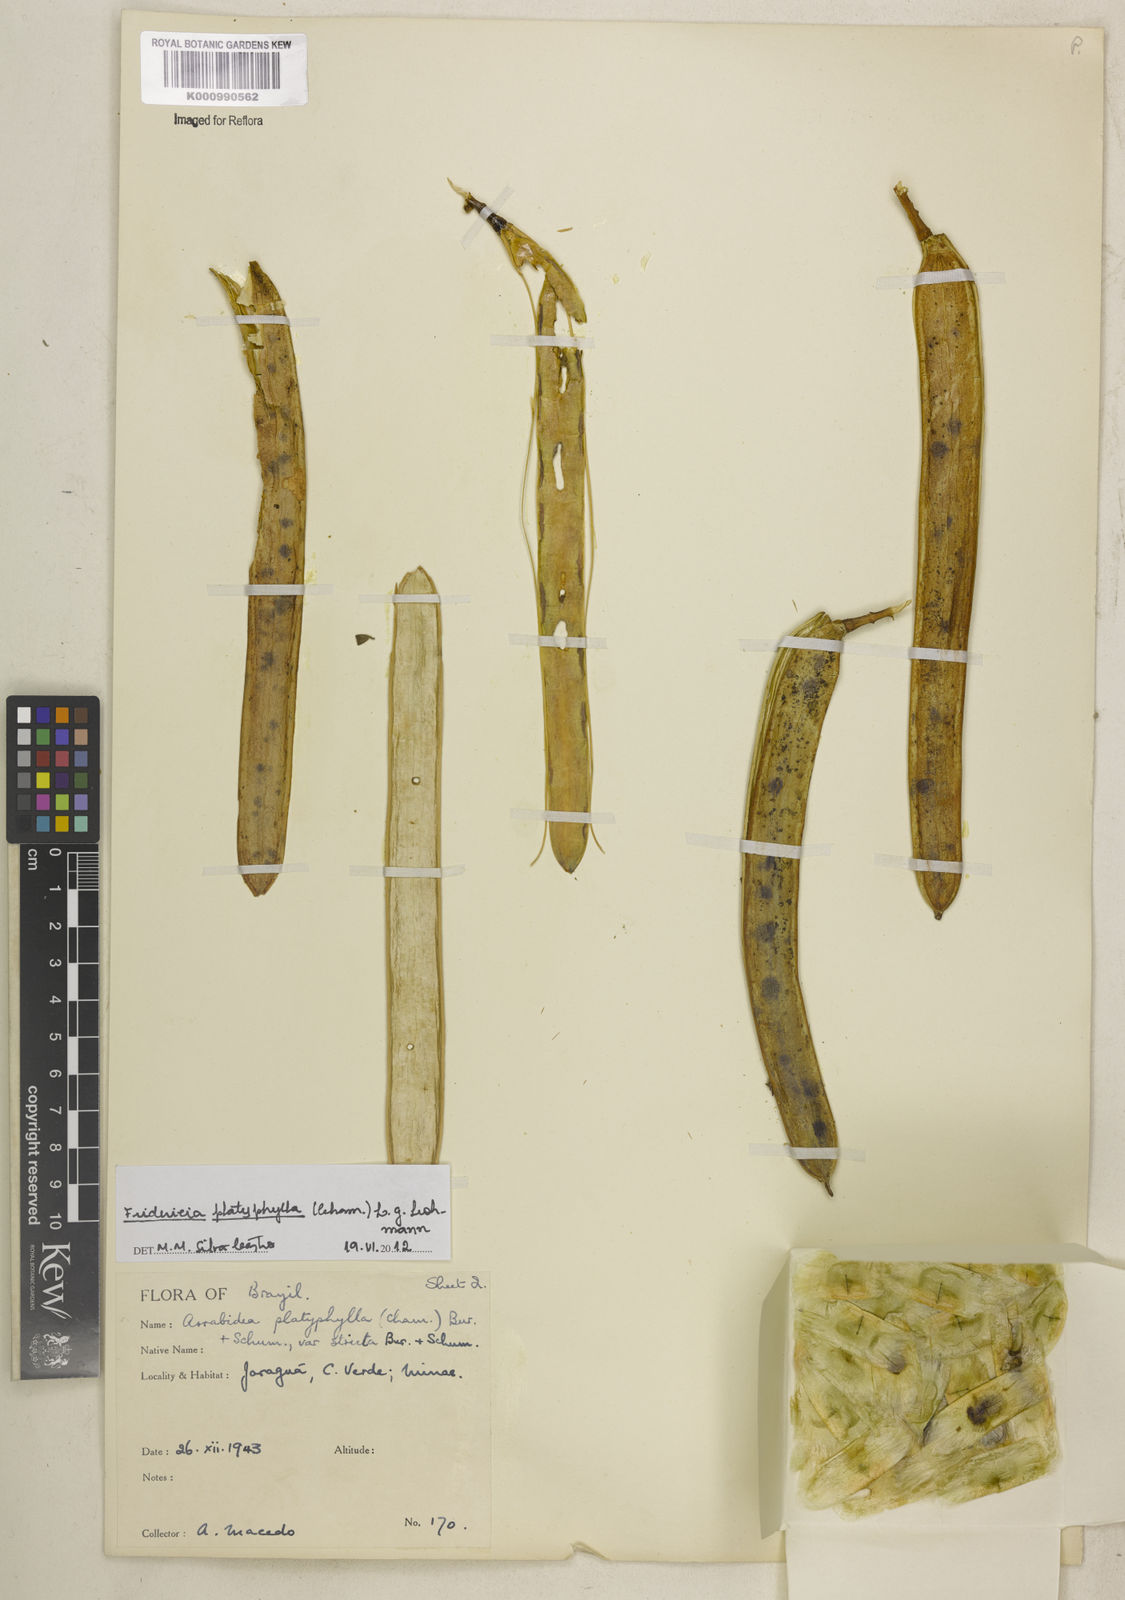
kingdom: Plantae
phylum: Tracheophyta
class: Magnoliopsida
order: Lamiales
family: Bignoniaceae
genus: Fridericia
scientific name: Fridericia platyphylla
